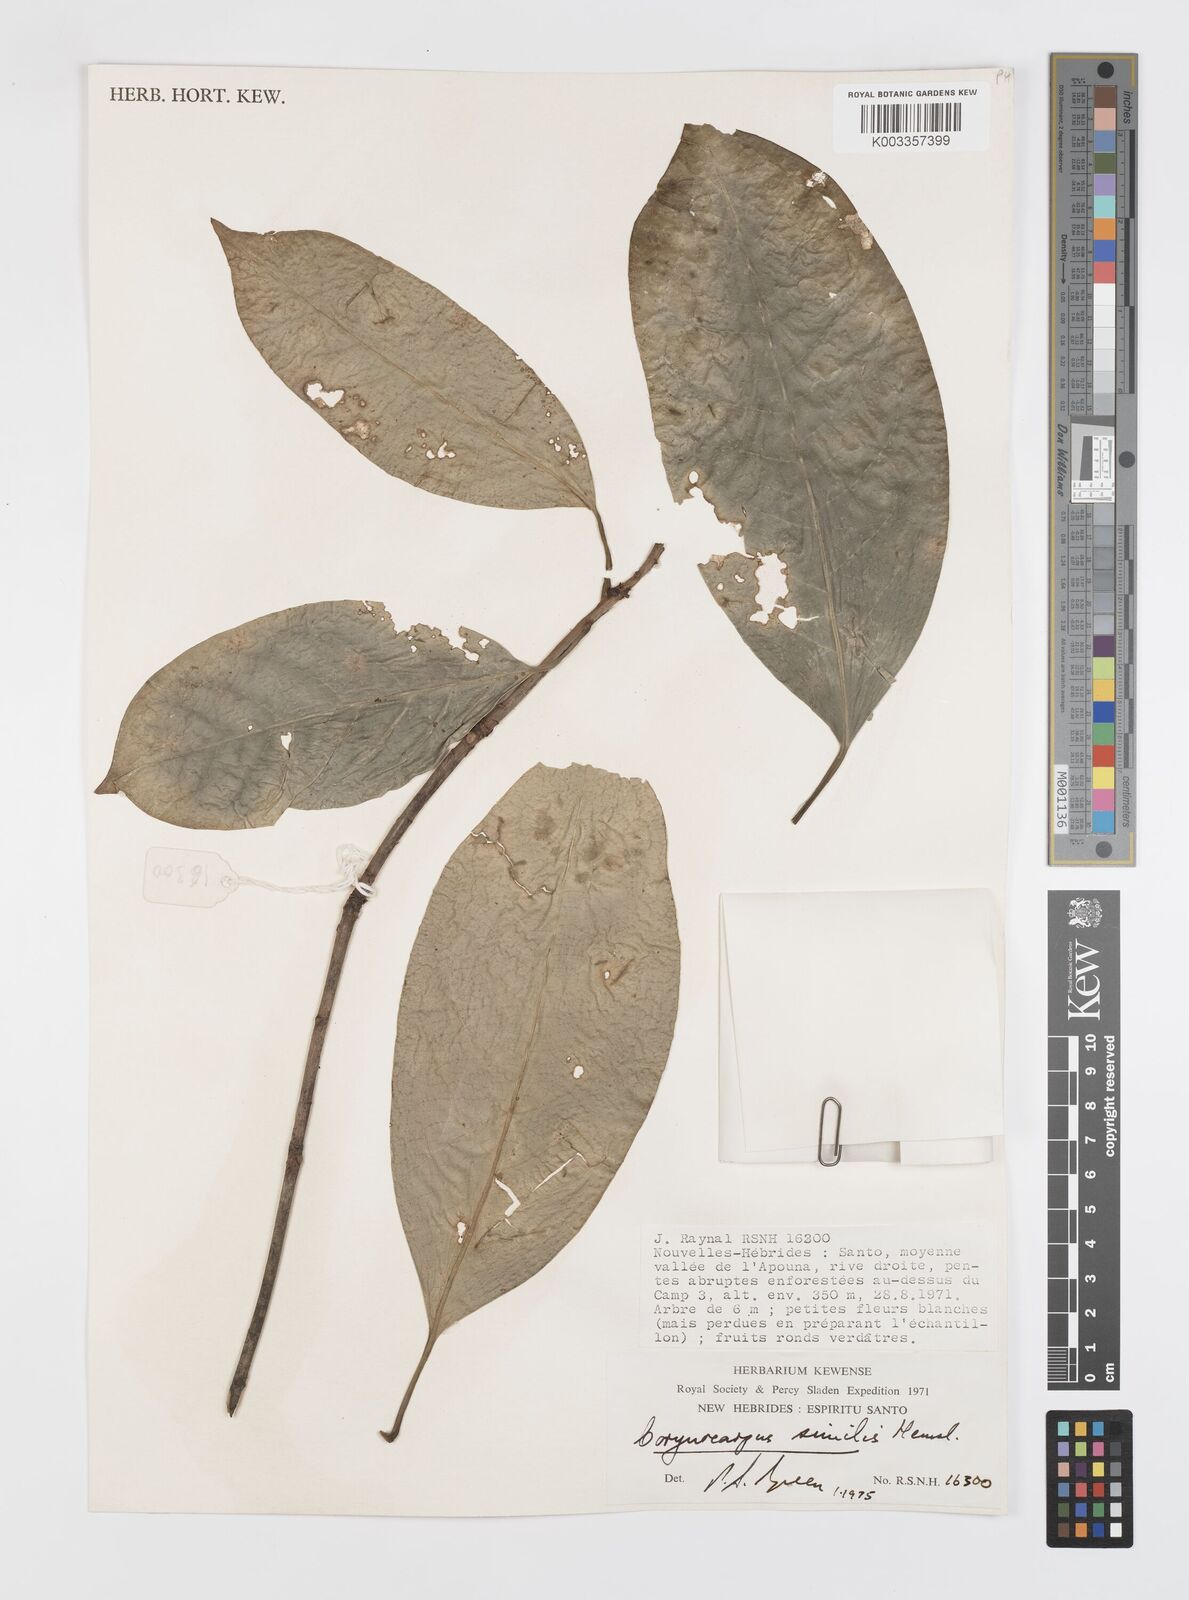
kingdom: Plantae
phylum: Tracheophyta
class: Magnoliopsida
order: Cucurbitales
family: Corynocarpaceae
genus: Corynocarpus
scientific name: Corynocarpus similis
